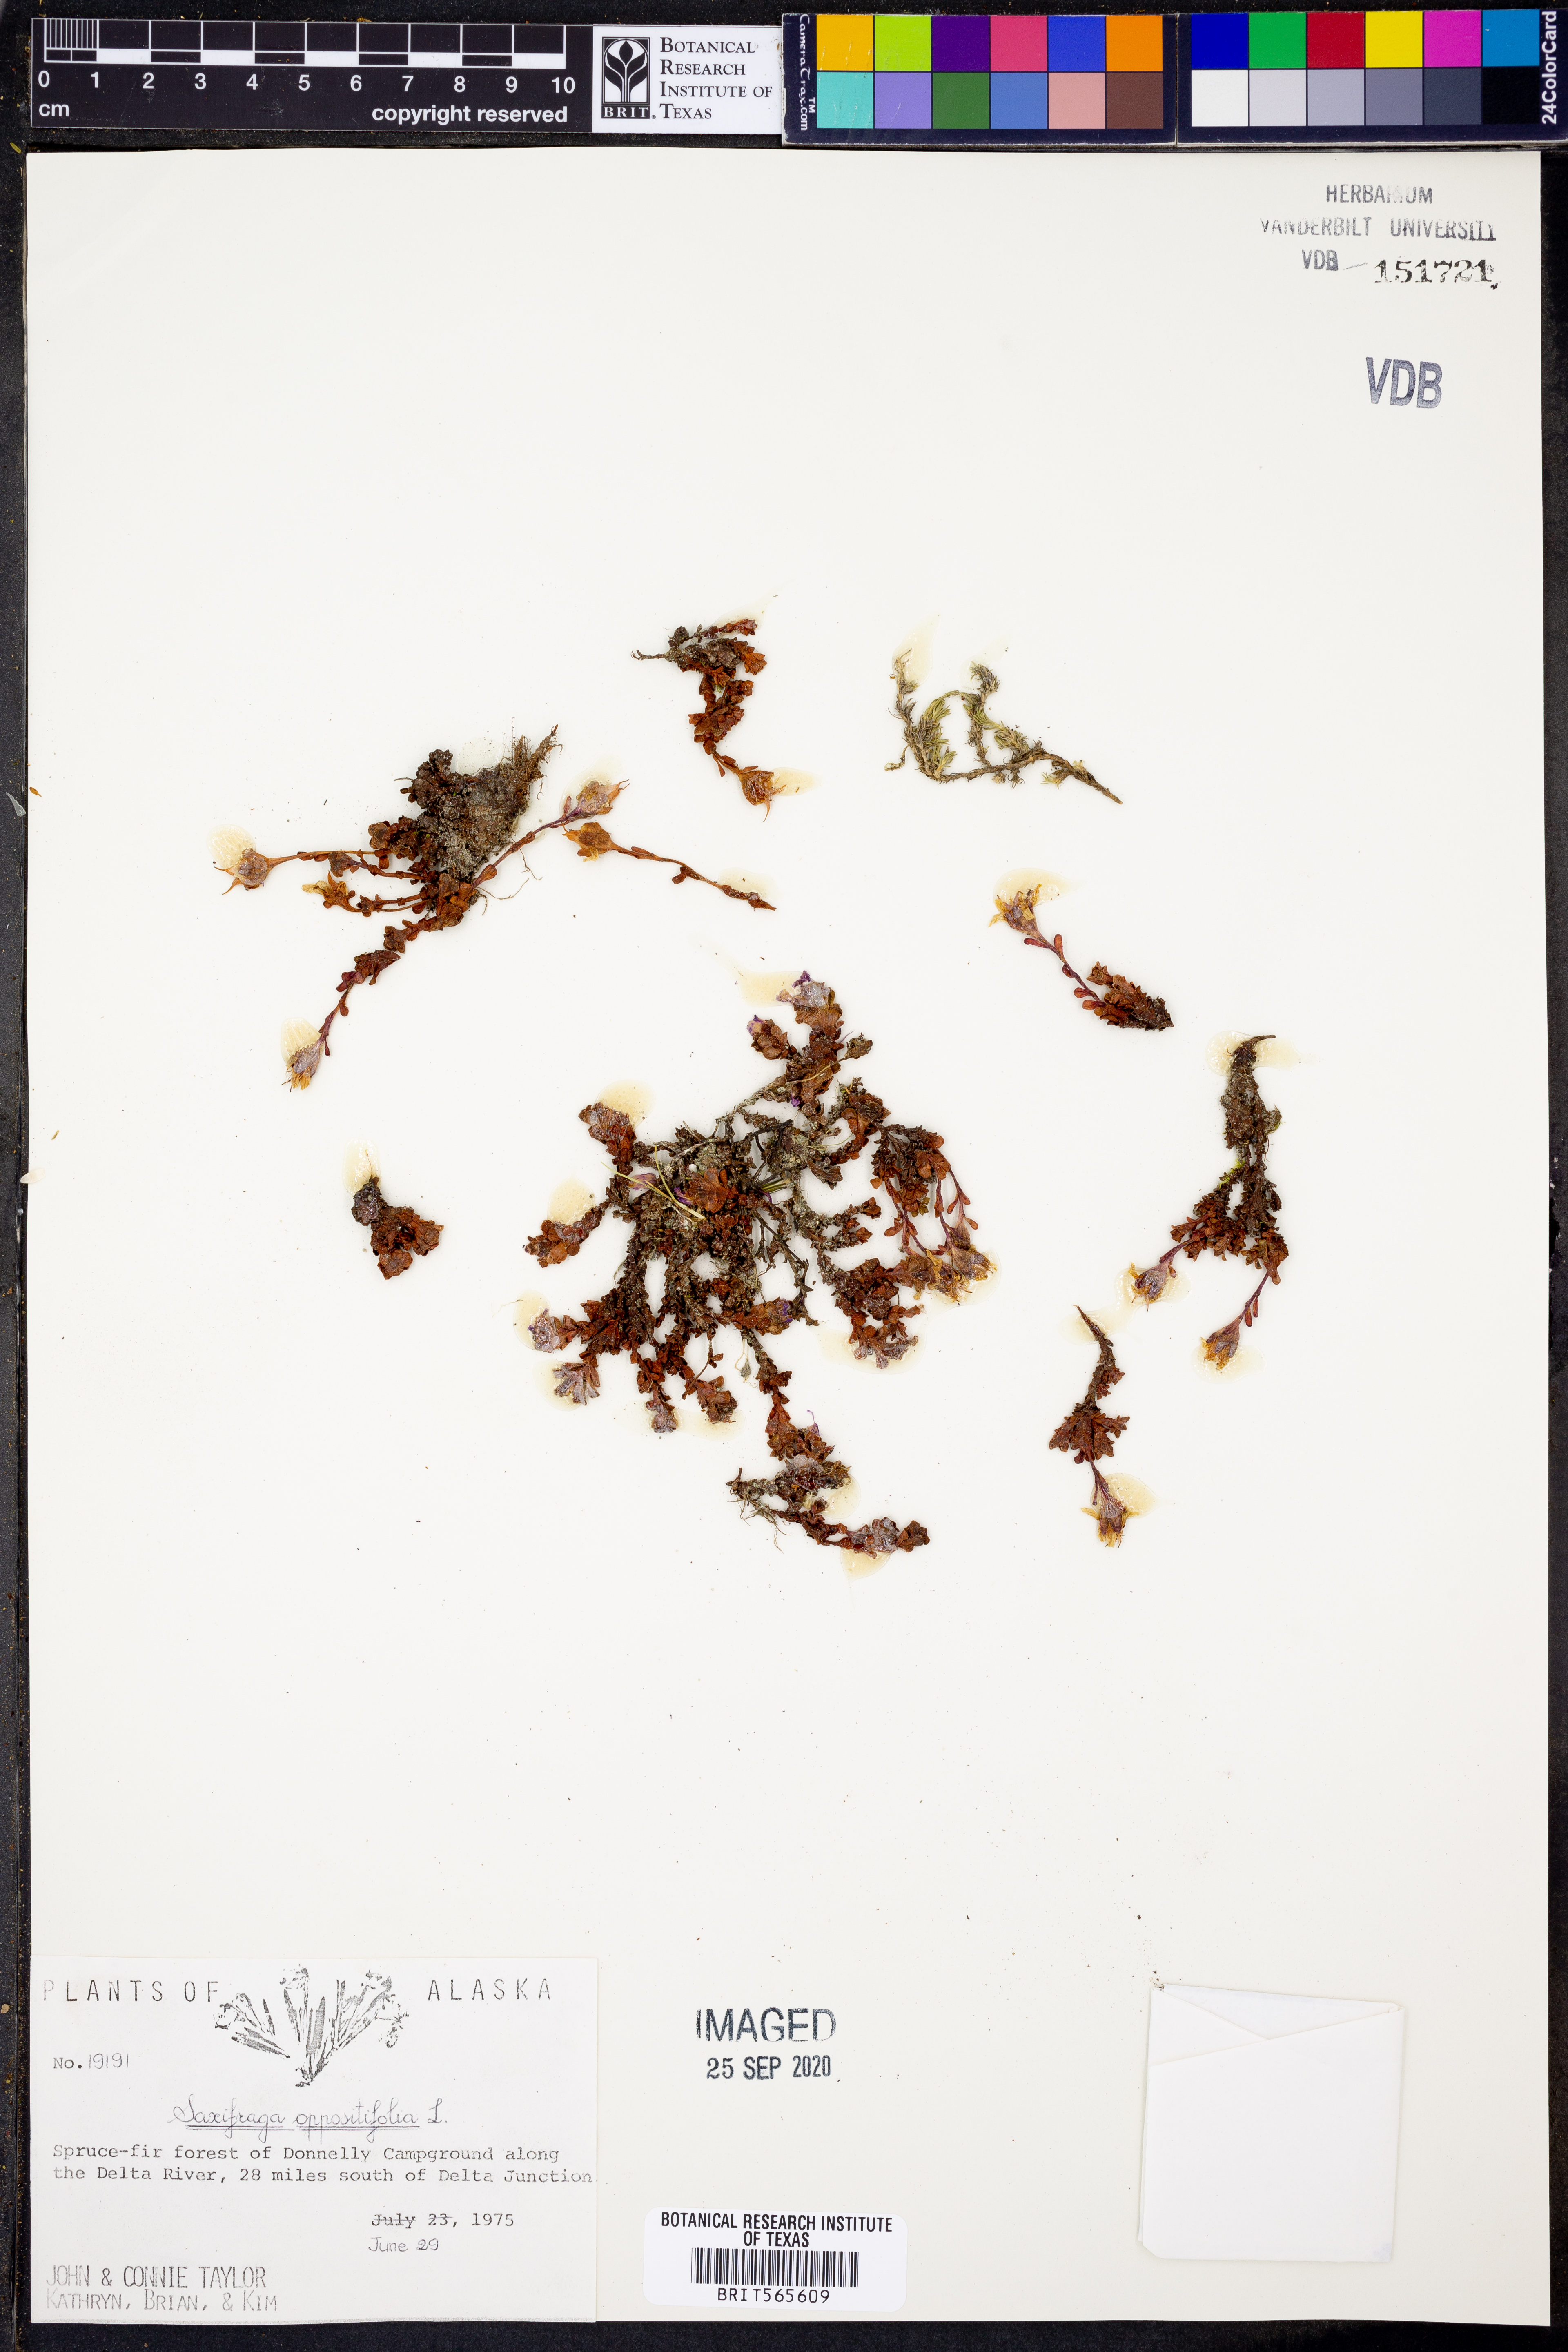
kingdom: Plantae
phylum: Tracheophyta
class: Magnoliopsida
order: Saxifragales
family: Saxifragaceae
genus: Saxifraga
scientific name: Saxifraga oppositifolia
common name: Purple saxifrage
